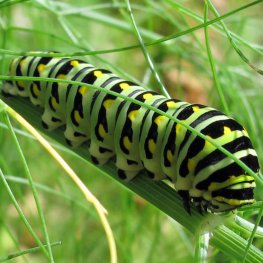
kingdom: Animalia
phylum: Arthropoda
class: Insecta
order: Lepidoptera
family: Papilionidae
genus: Papilio
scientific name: Papilio polyxenes
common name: Black Swallowtail
